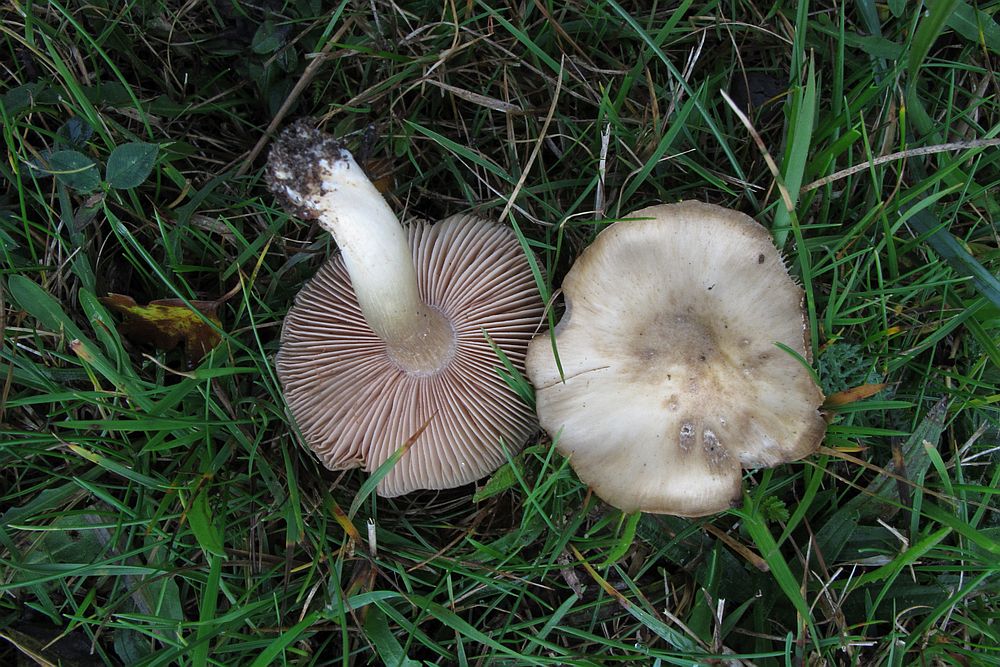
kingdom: Fungi
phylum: Basidiomycota
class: Agaricomycetes
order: Agaricales
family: Entolomataceae
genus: Entoloma
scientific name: Entoloma prunuloides
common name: mel-rødblad
